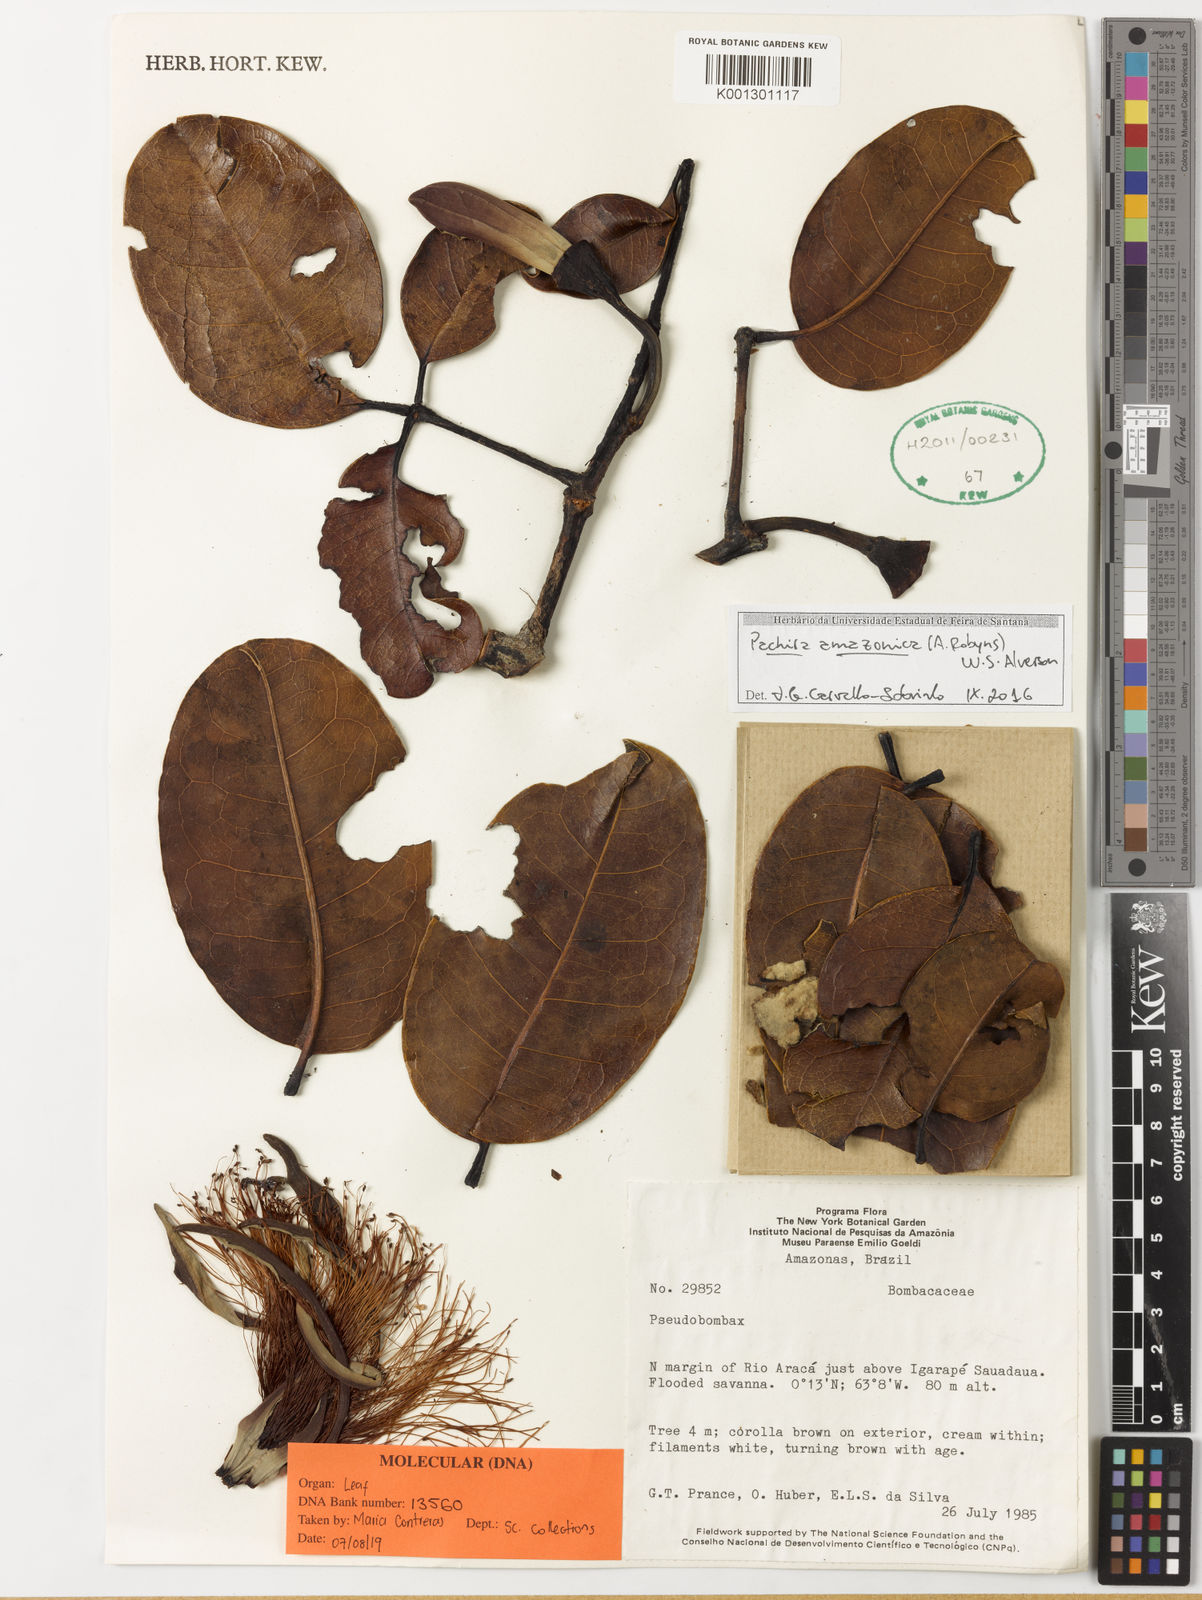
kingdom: Plantae
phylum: Tracheophyta
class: Magnoliopsida
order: Malvales
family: Malvaceae
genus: Pachira
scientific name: Pachira amazonica
